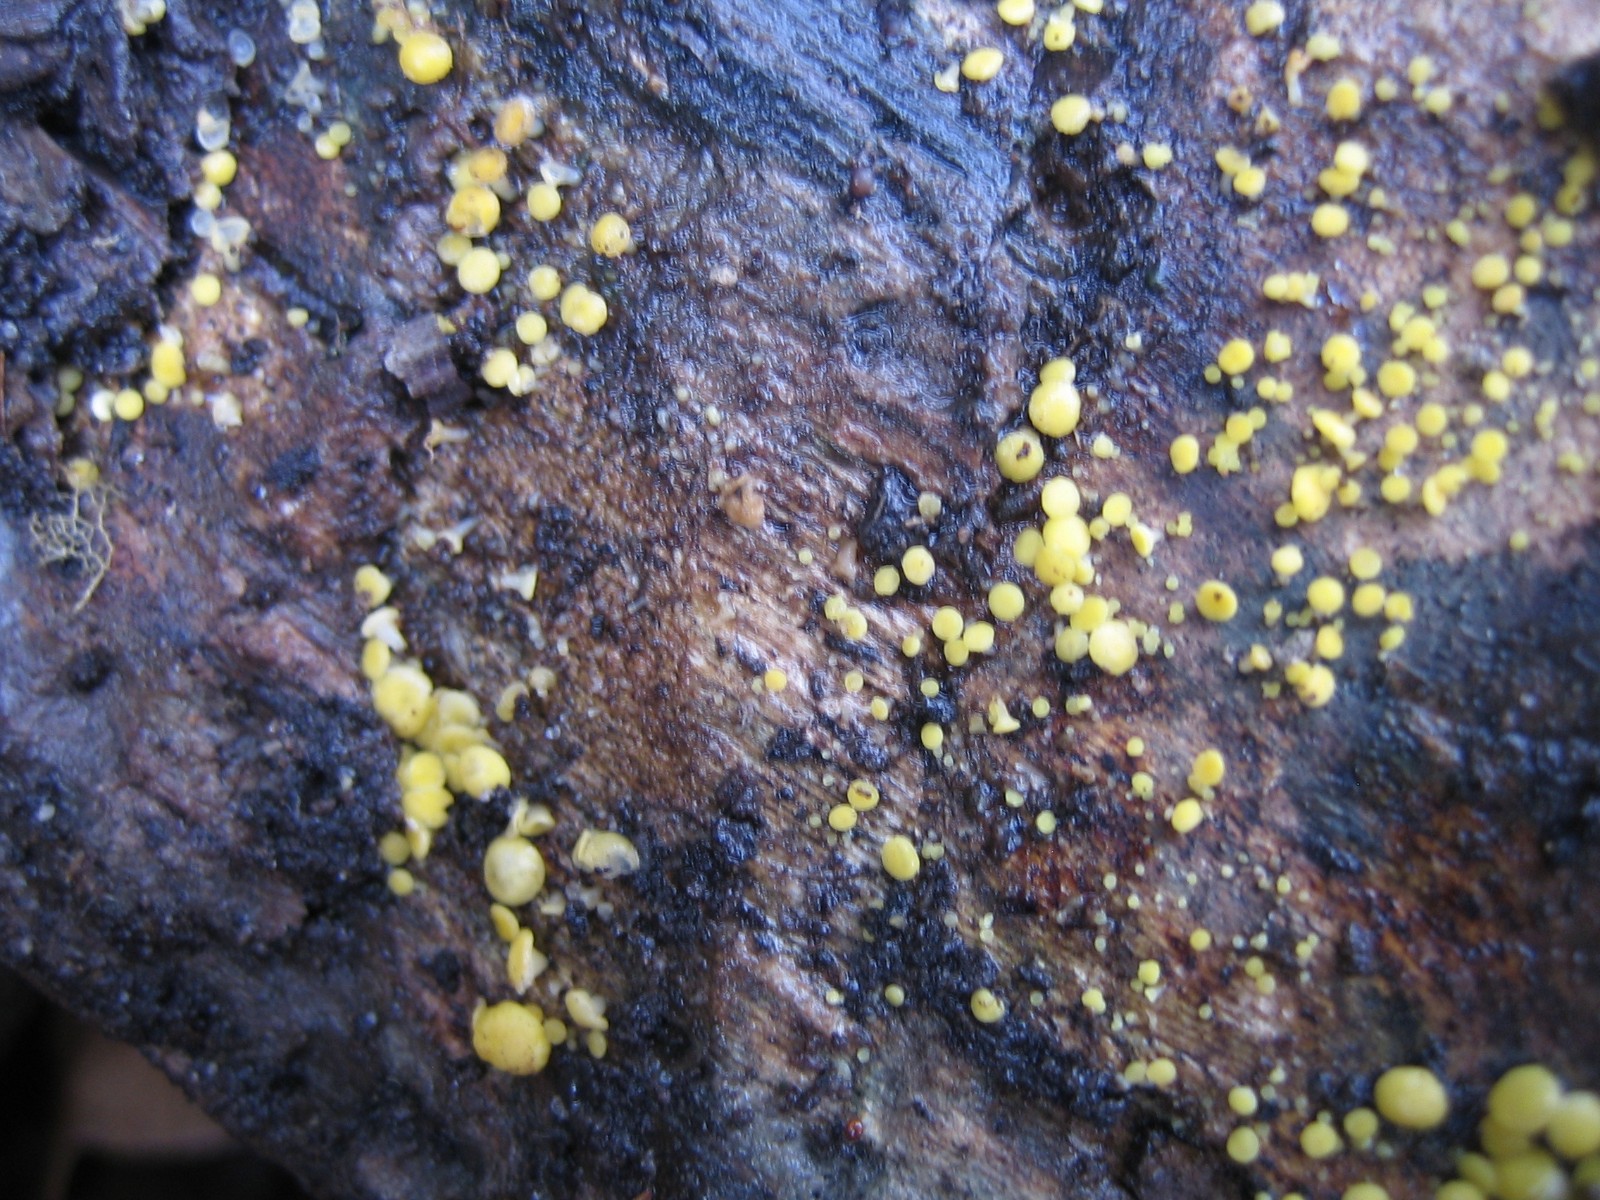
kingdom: Fungi
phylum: Ascomycota
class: Leotiomycetes
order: Helotiales
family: Pezizellaceae
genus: Calycina
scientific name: Calycina
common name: gulskive
